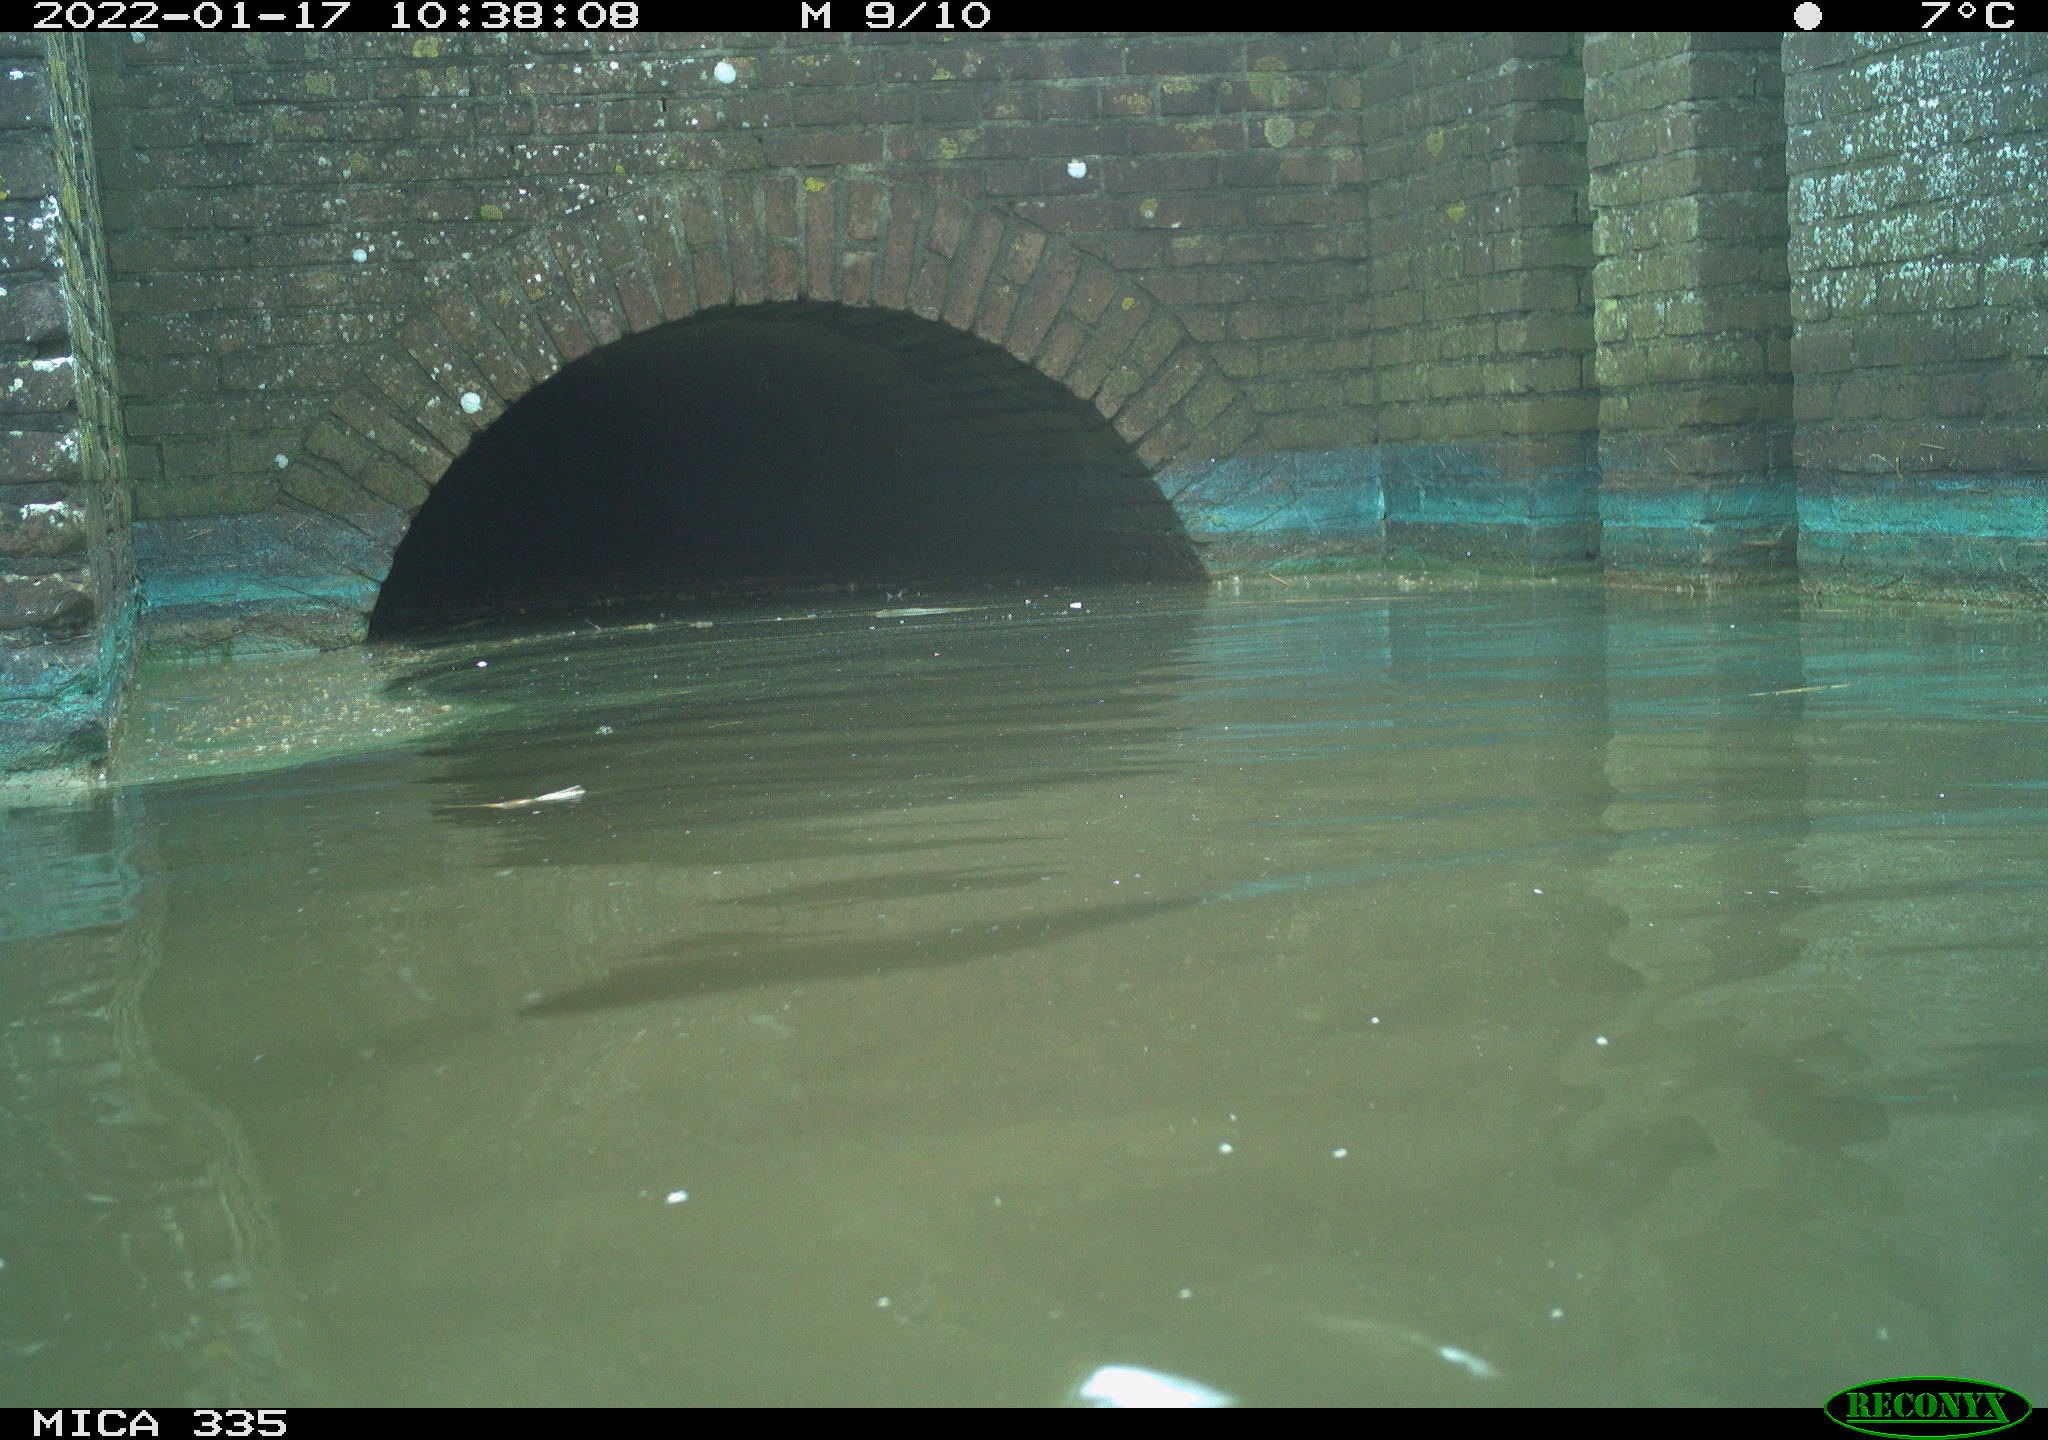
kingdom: Animalia
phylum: Chordata
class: Aves
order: Suliformes
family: Phalacrocoracidae
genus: Phalacrocorax
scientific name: Phalacrocorax carbo
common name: Great cormorant
